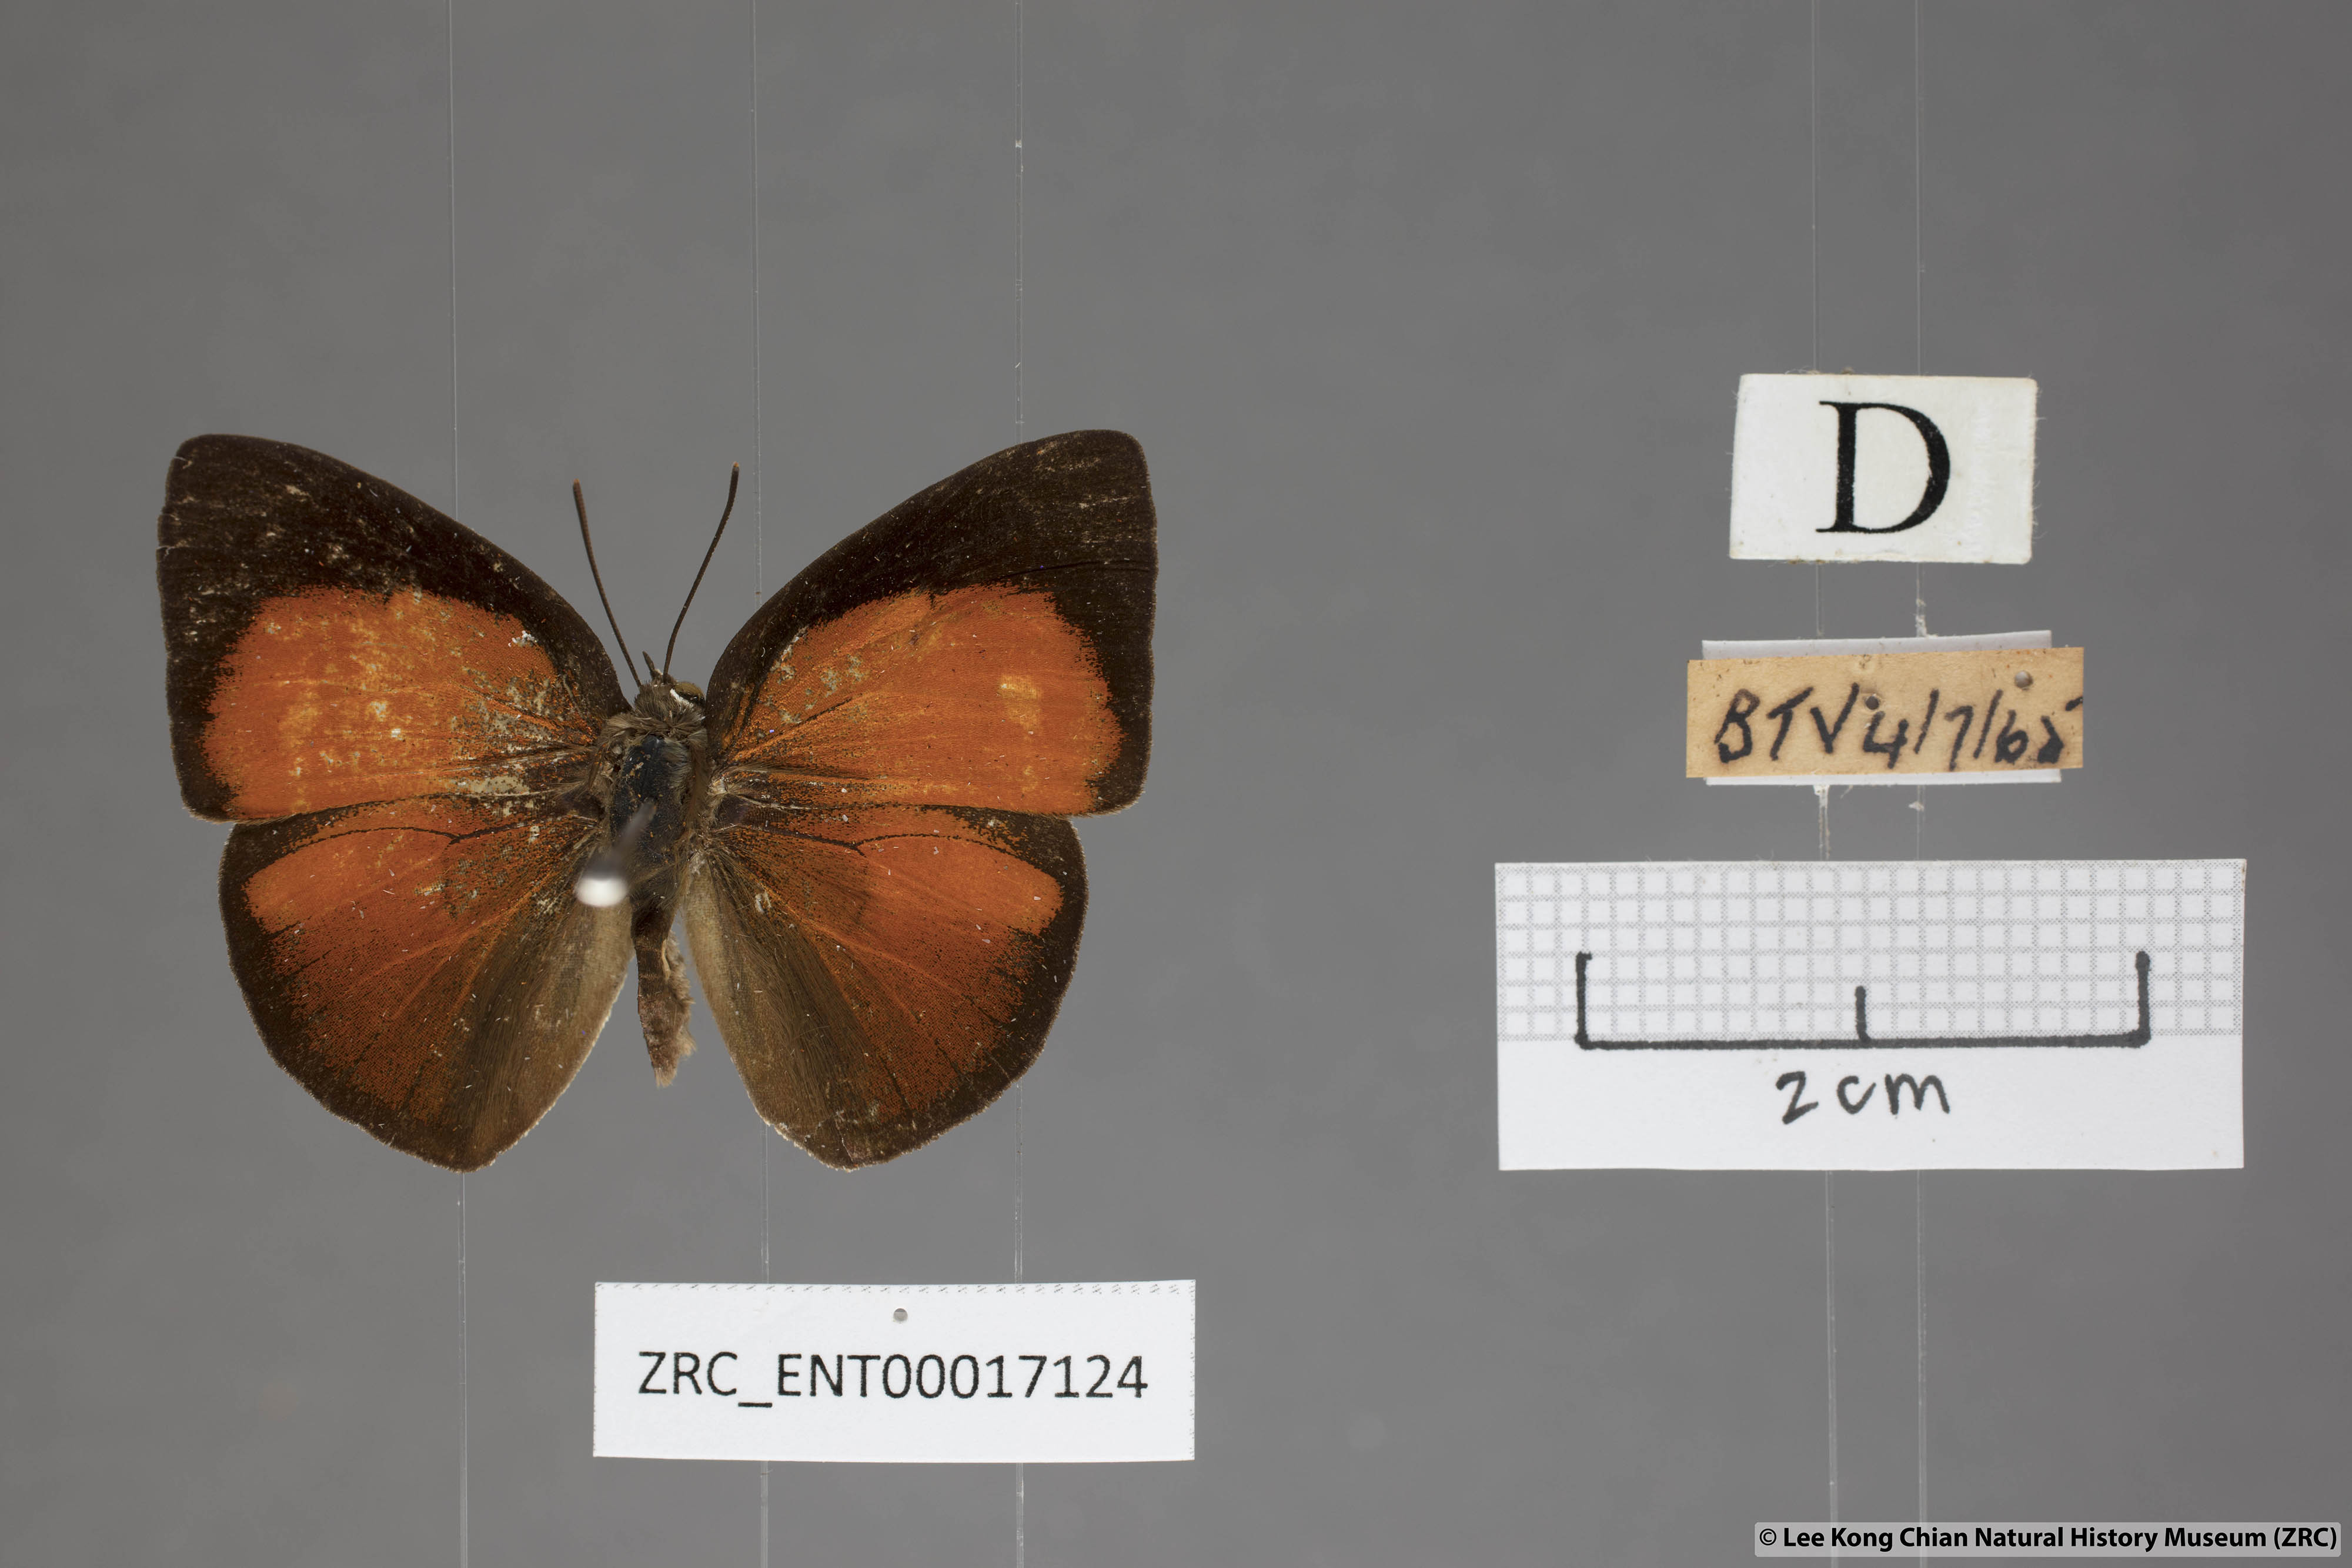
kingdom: Animalia
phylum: Arthropoda
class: Insecta
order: Lepidoptera
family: Lycaenidae
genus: Curetis
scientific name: Curetis freda
